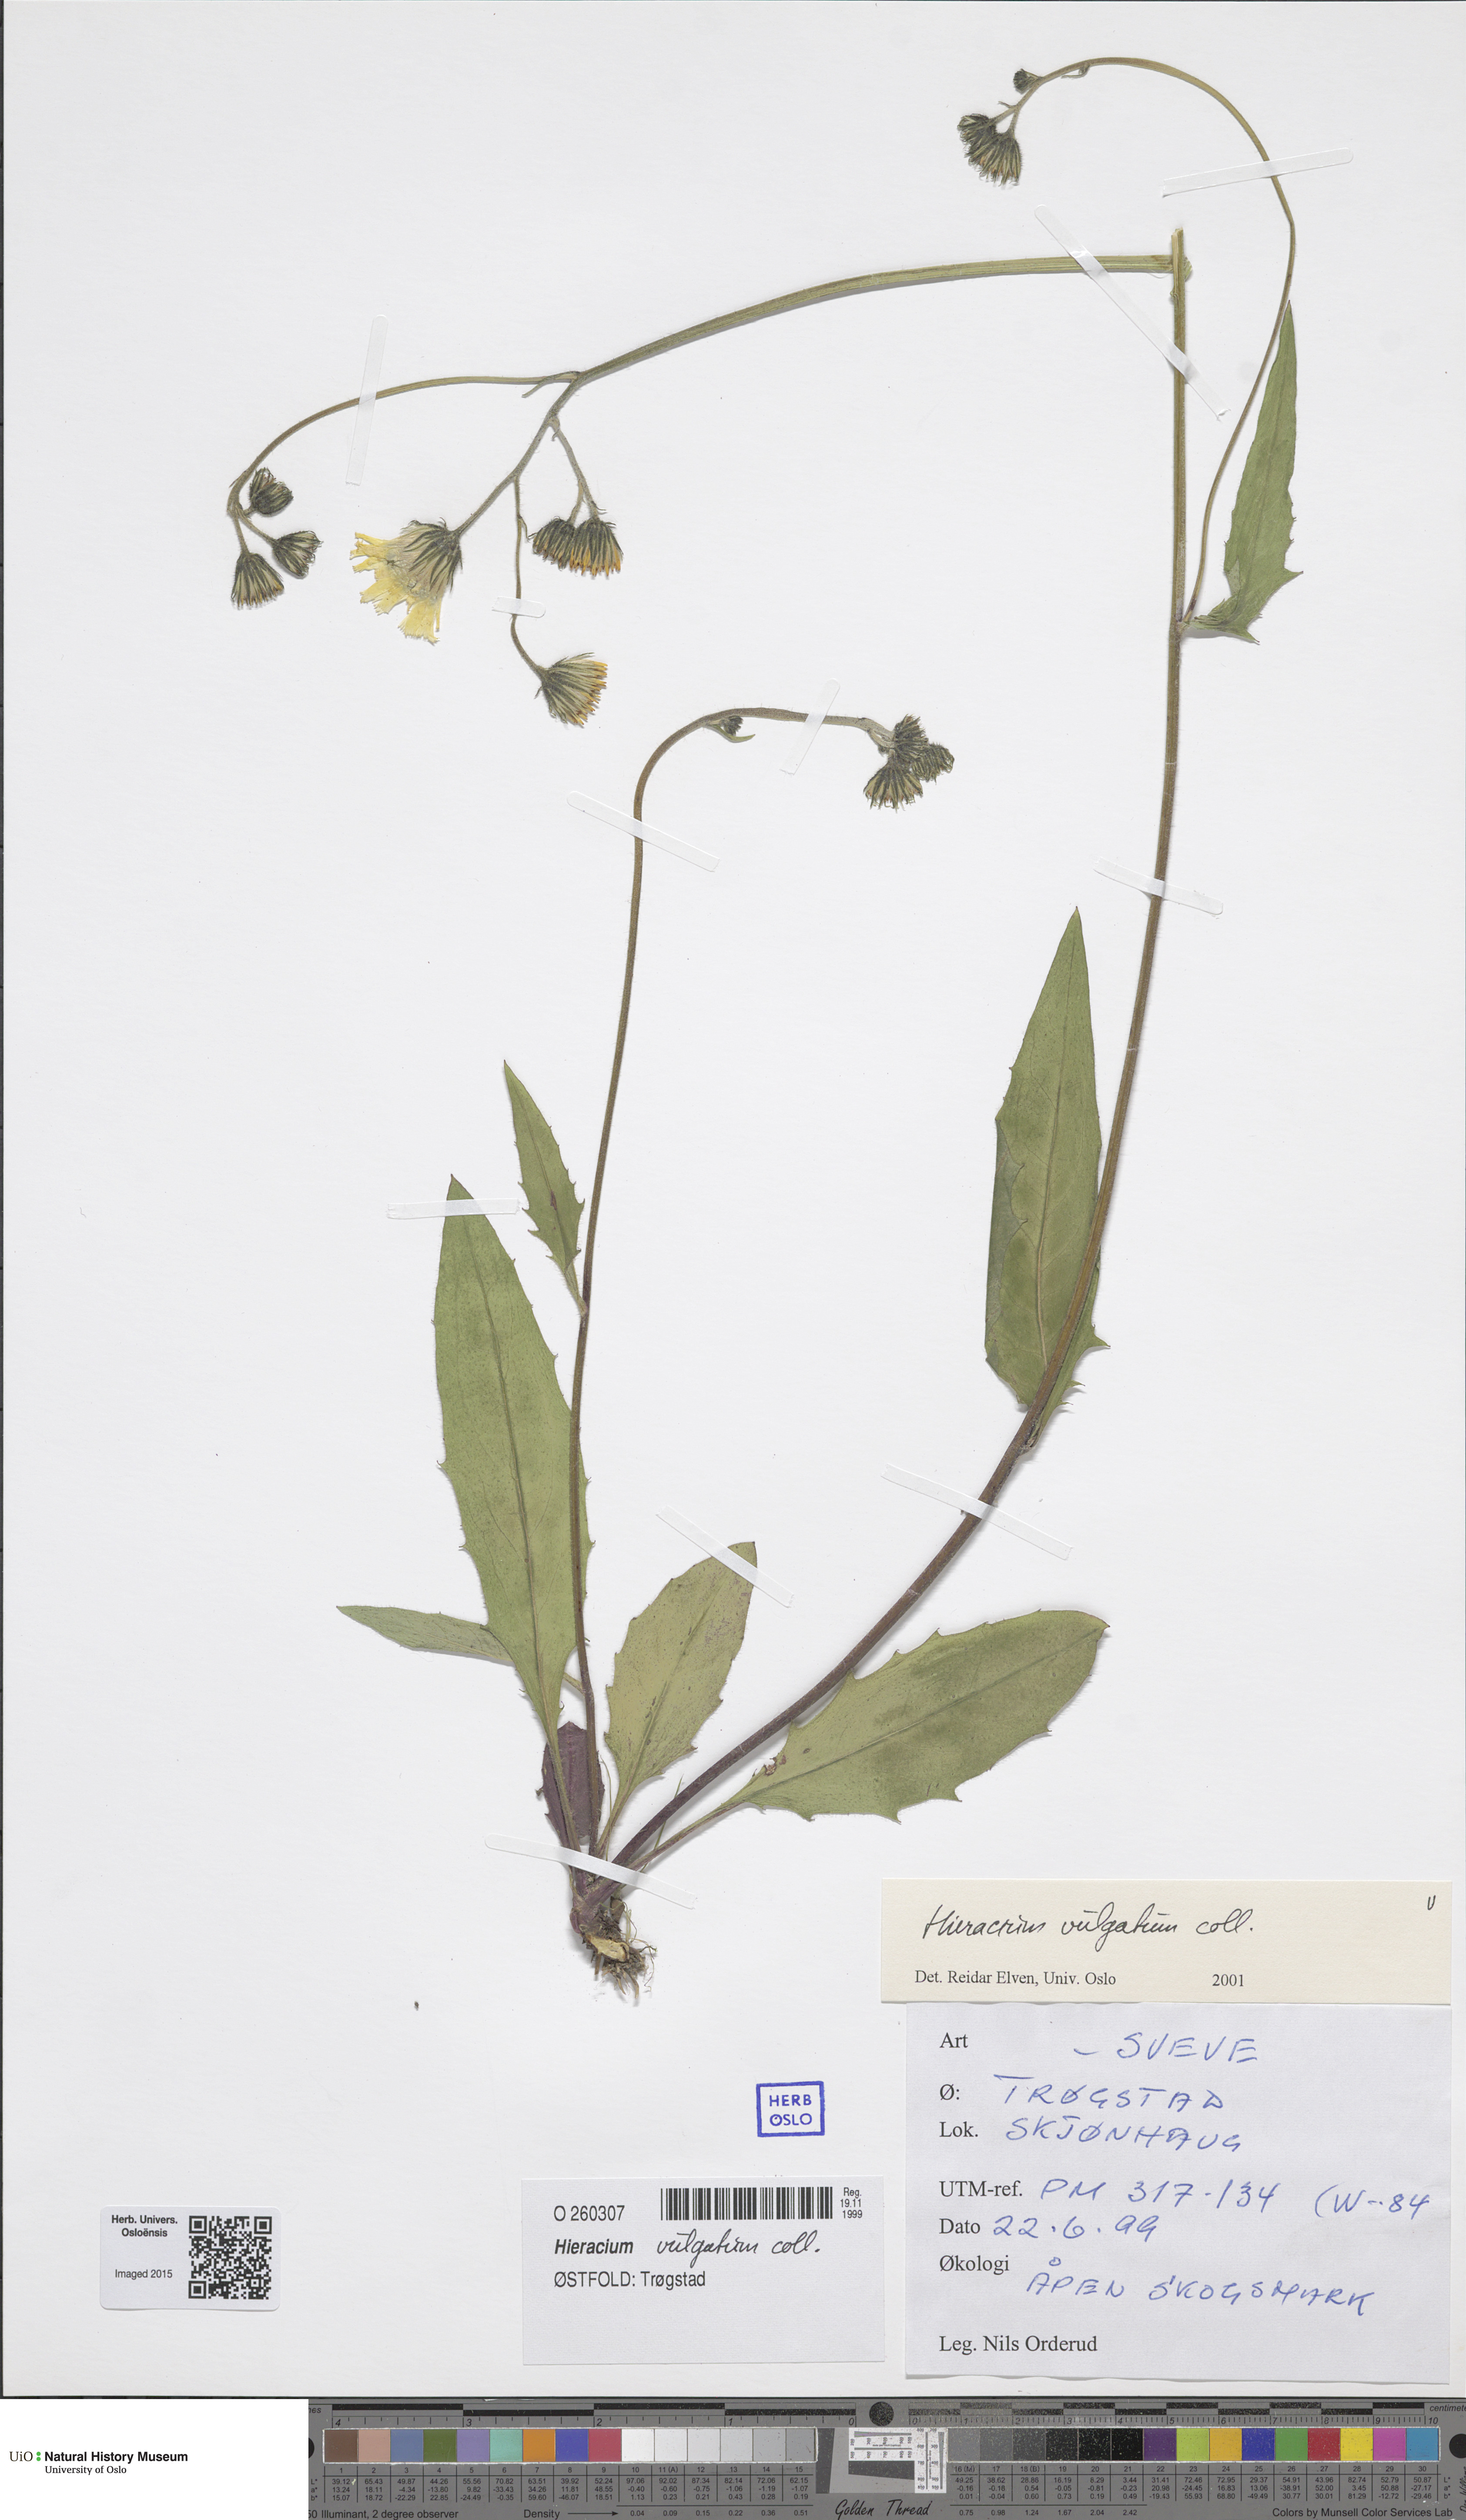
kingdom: Plantae
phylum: Tracheophyta
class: Magnoliopsida
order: Asterales
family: Asteraceae
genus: Hieracium
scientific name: Hieracium vulgatum
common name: Common hawkweed
